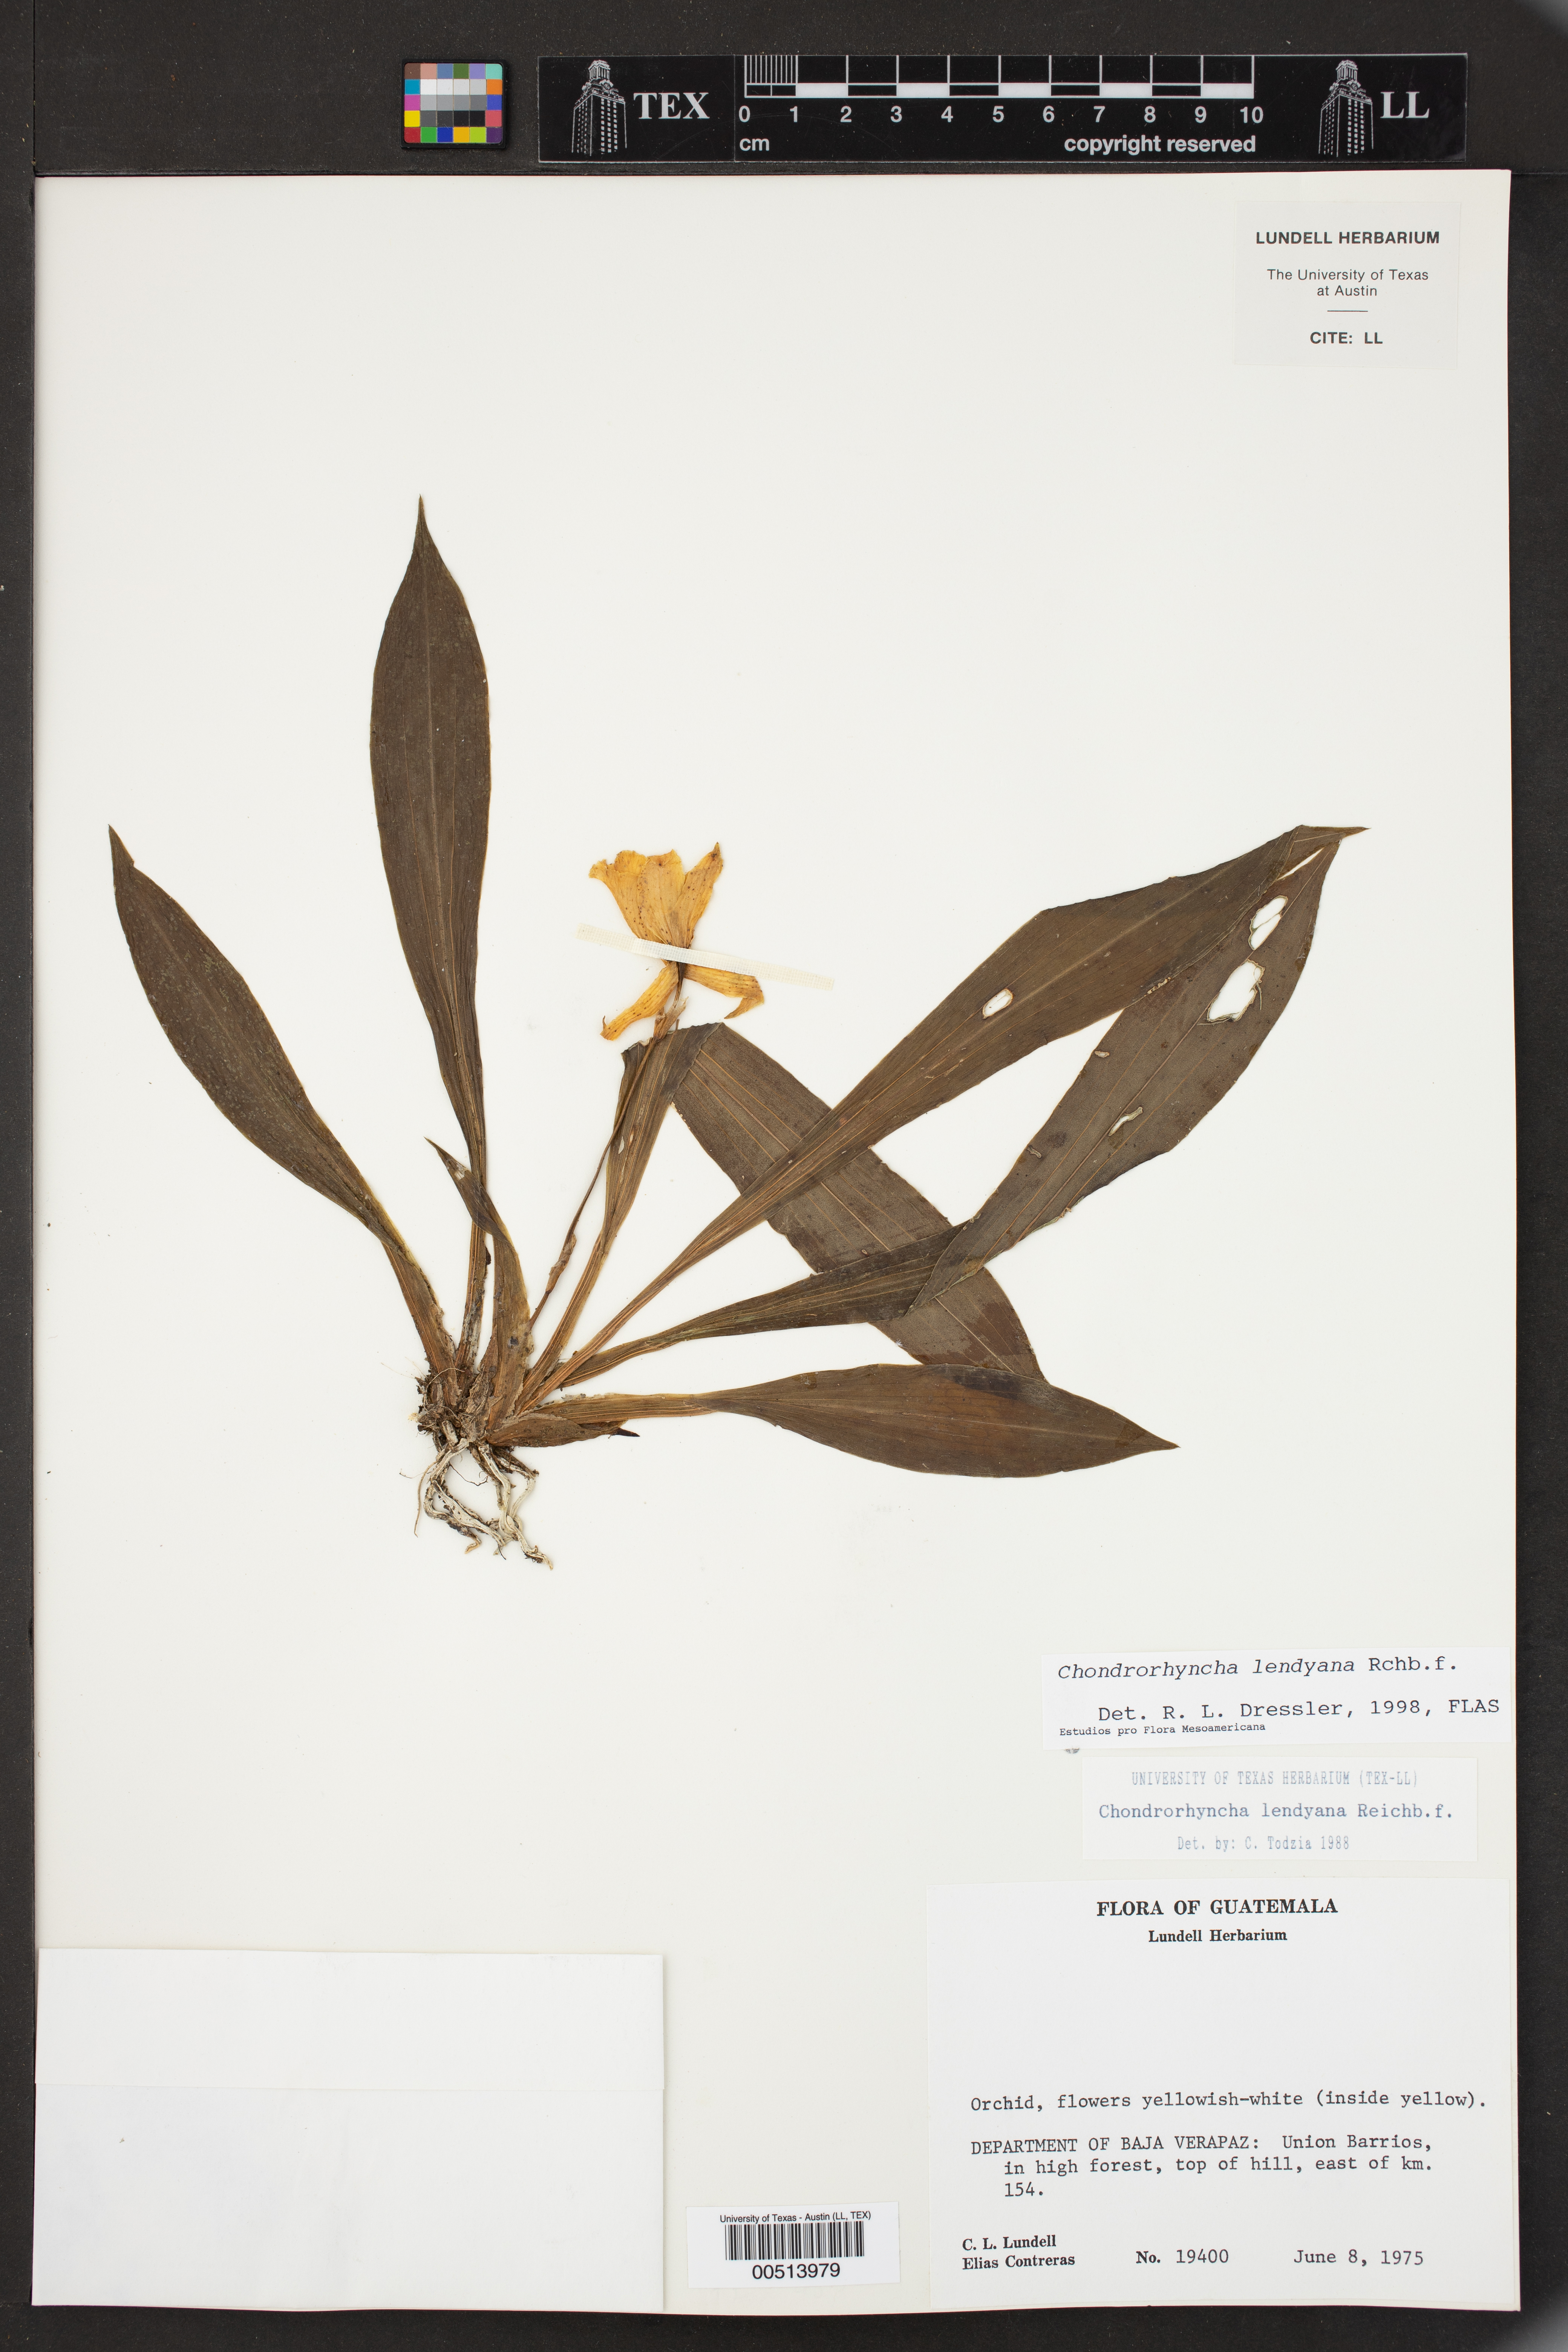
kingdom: Plantae
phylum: Tracheophyta
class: Liliopsida
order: Asparagales
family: Orchidaceae
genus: Stenotyla
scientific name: Stenotyla lendyana
